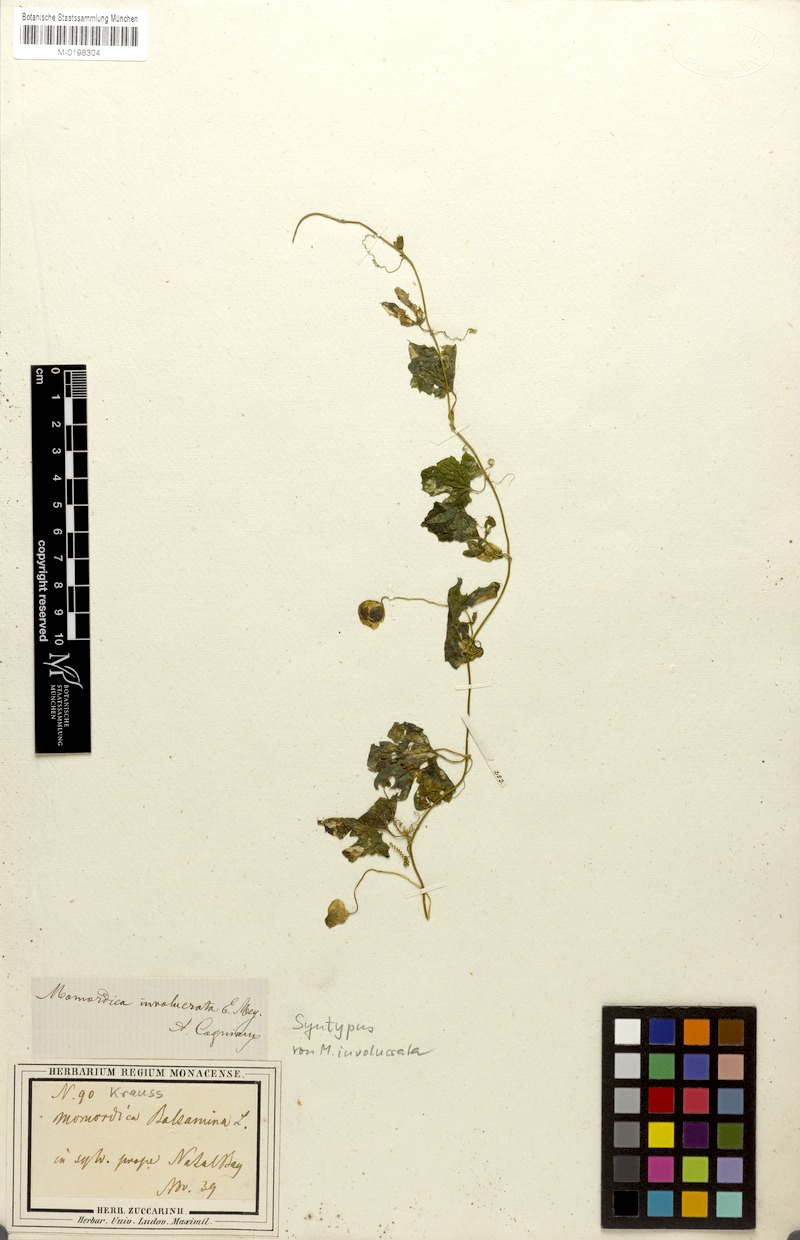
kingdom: Plantae
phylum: Tracheophyta
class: Magnoliopsida
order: Cucurbitales
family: Cucurbitaceae
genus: Momordica
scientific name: Momordica balsamina
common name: Southern balsampear
